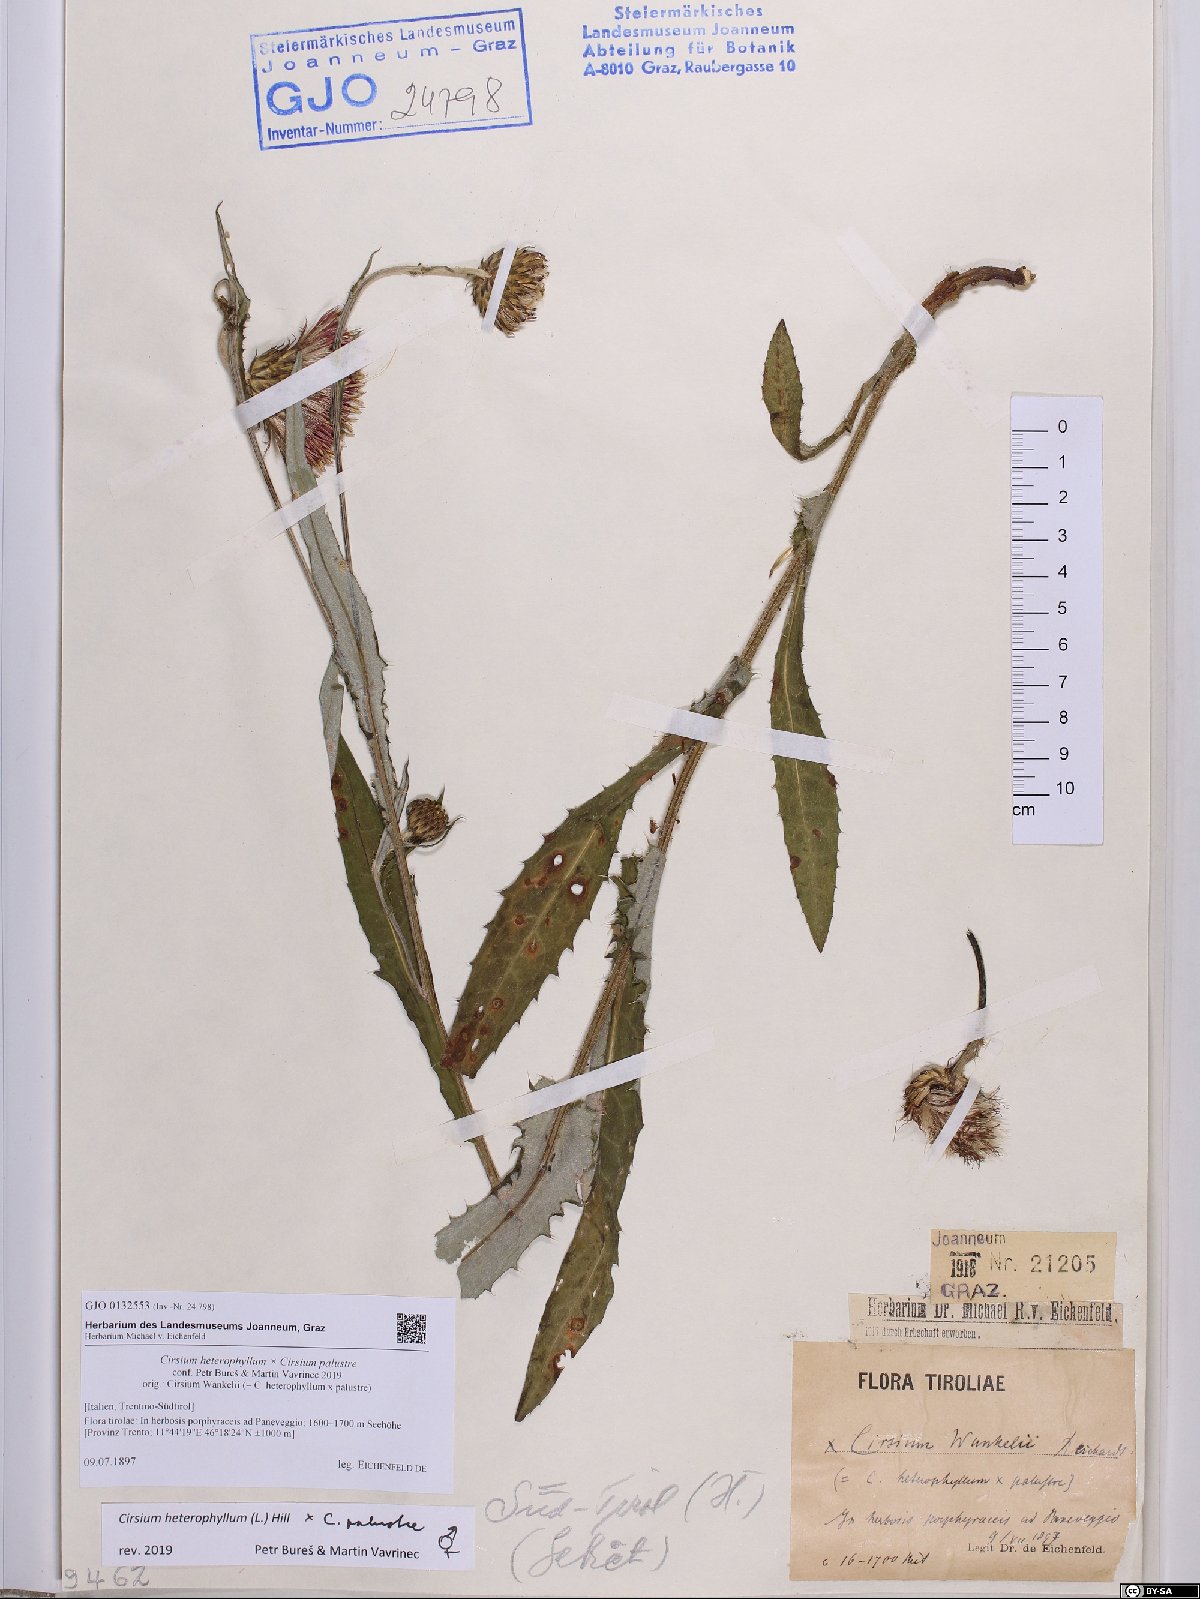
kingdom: Plantae
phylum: Tracheophyta
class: Magnoliopsida
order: Asterales
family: Asteraceae
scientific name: Asteraceae
